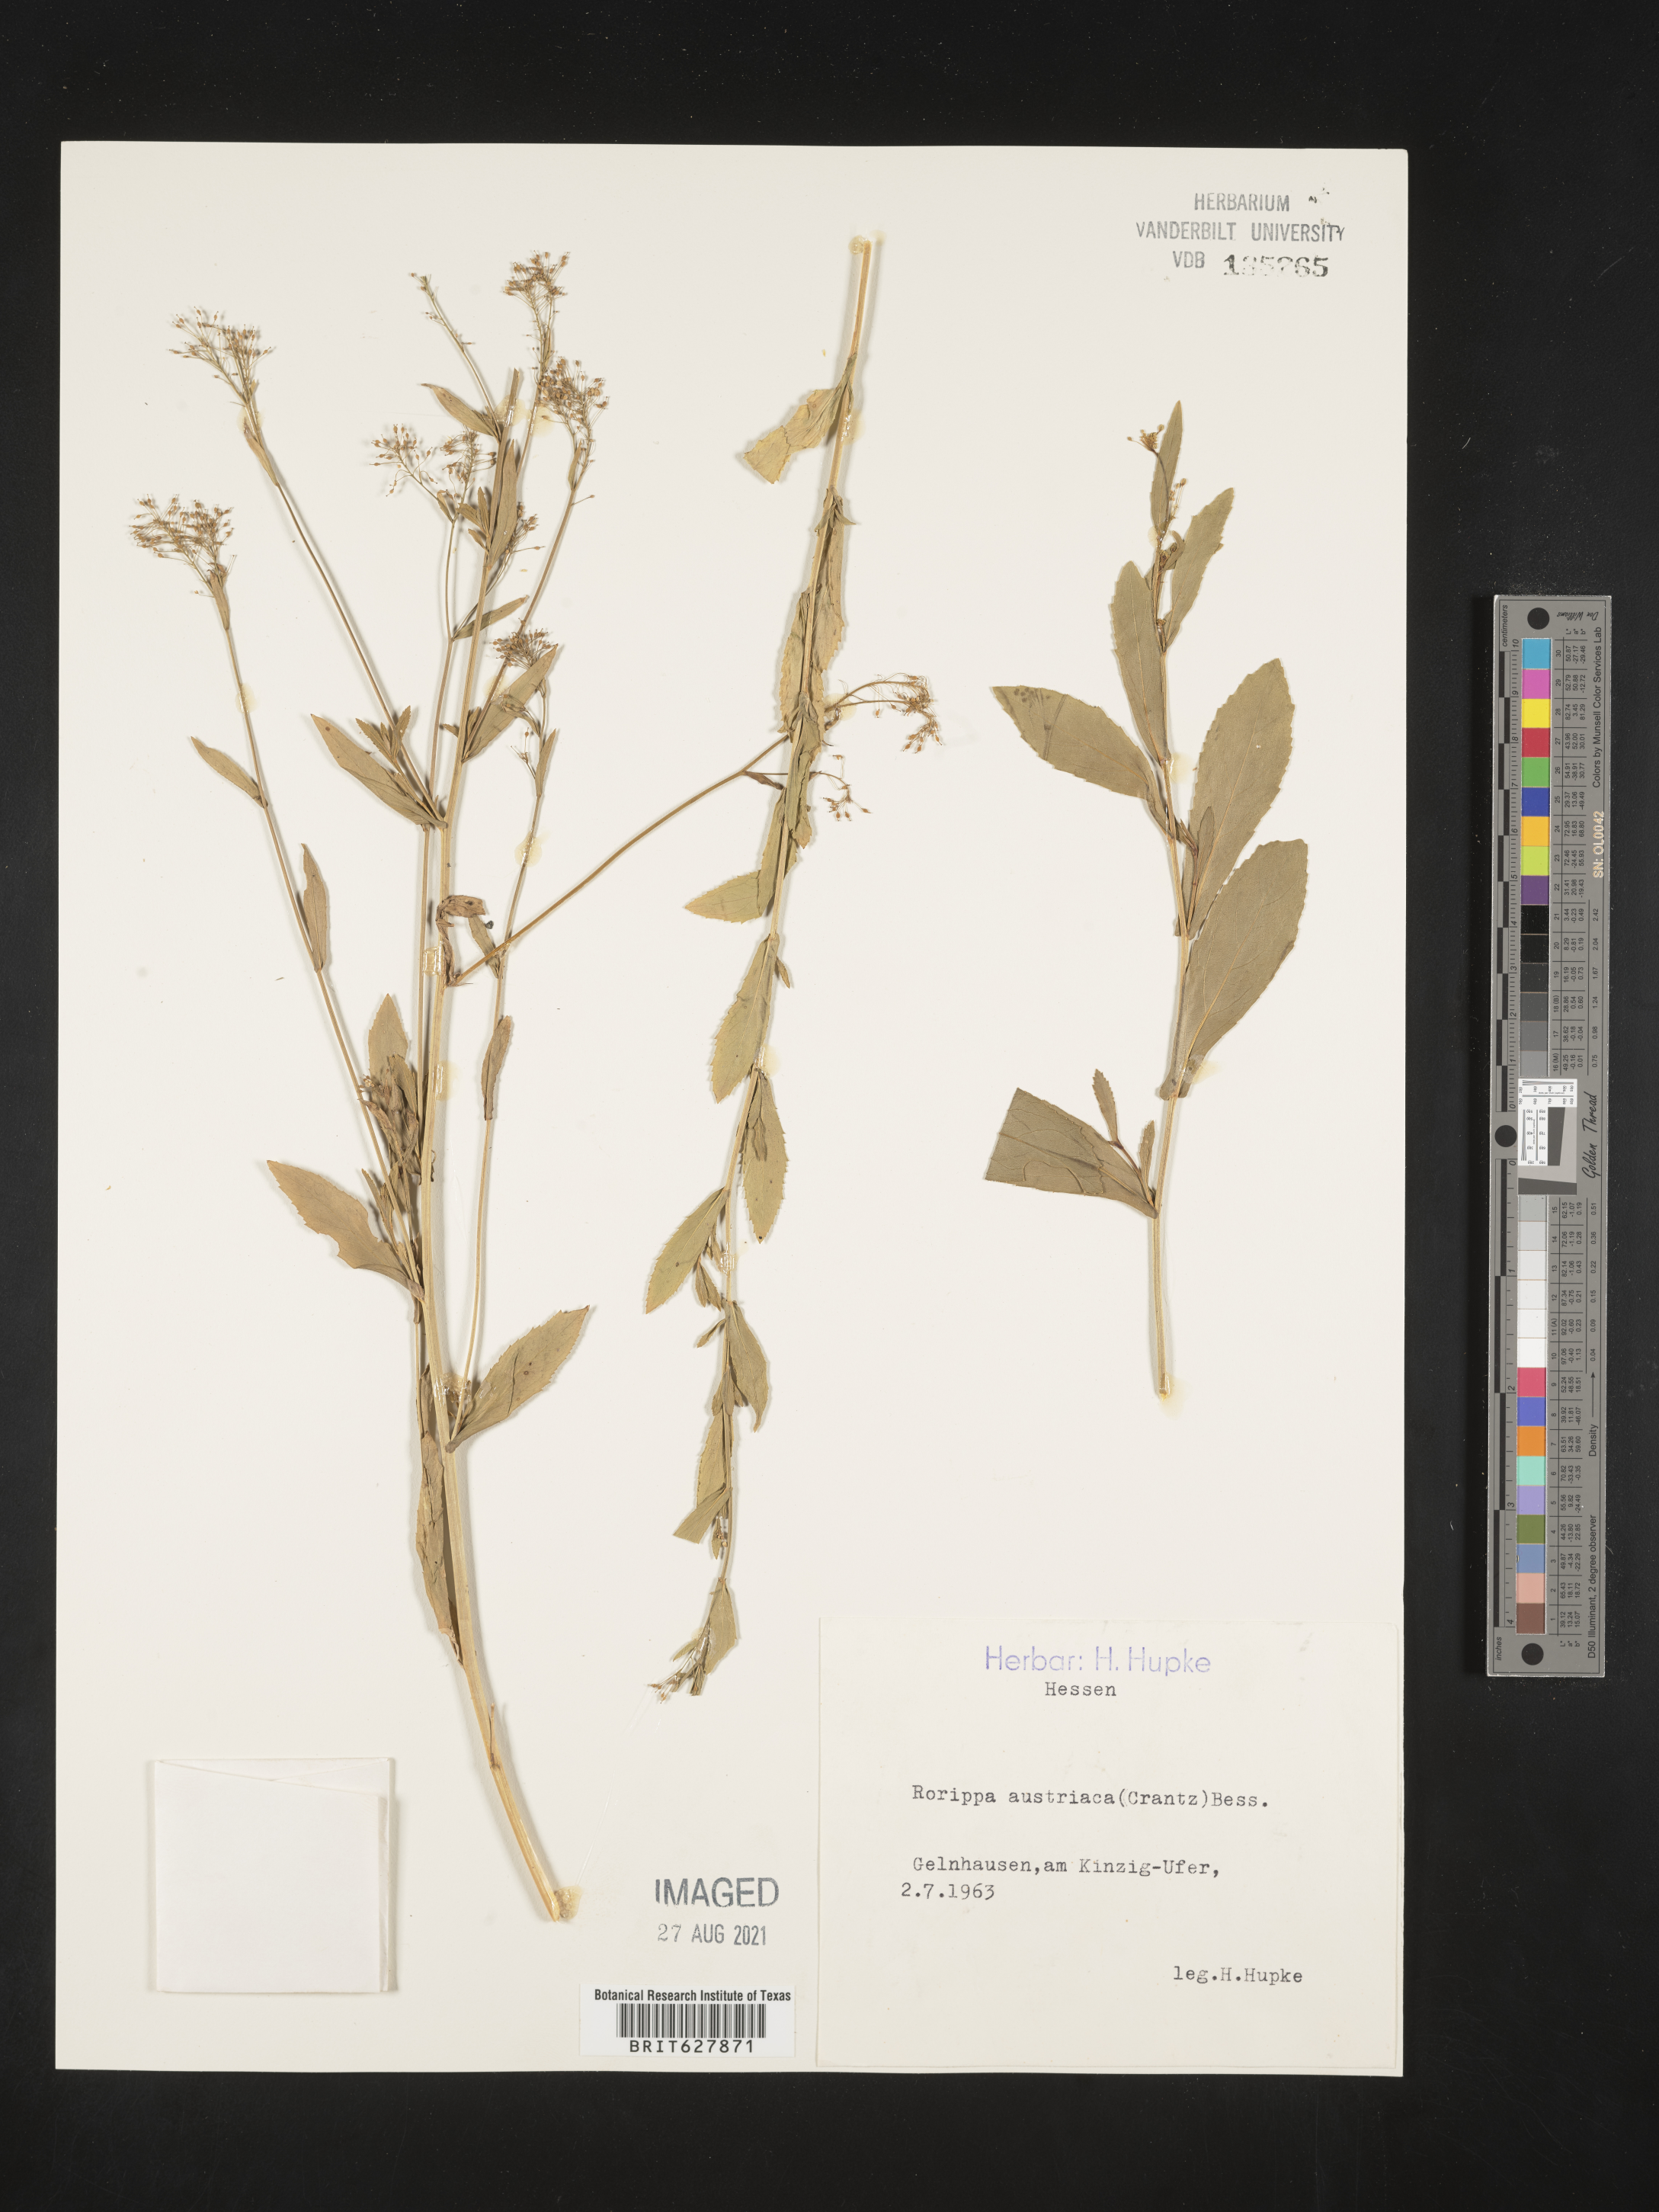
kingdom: Plantae
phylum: Tracheophyta
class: Magnoliopsida
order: Brassicales
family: Brassicaceae
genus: Rorippa
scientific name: Rorippa austriaca
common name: Austrian yellow-cress
